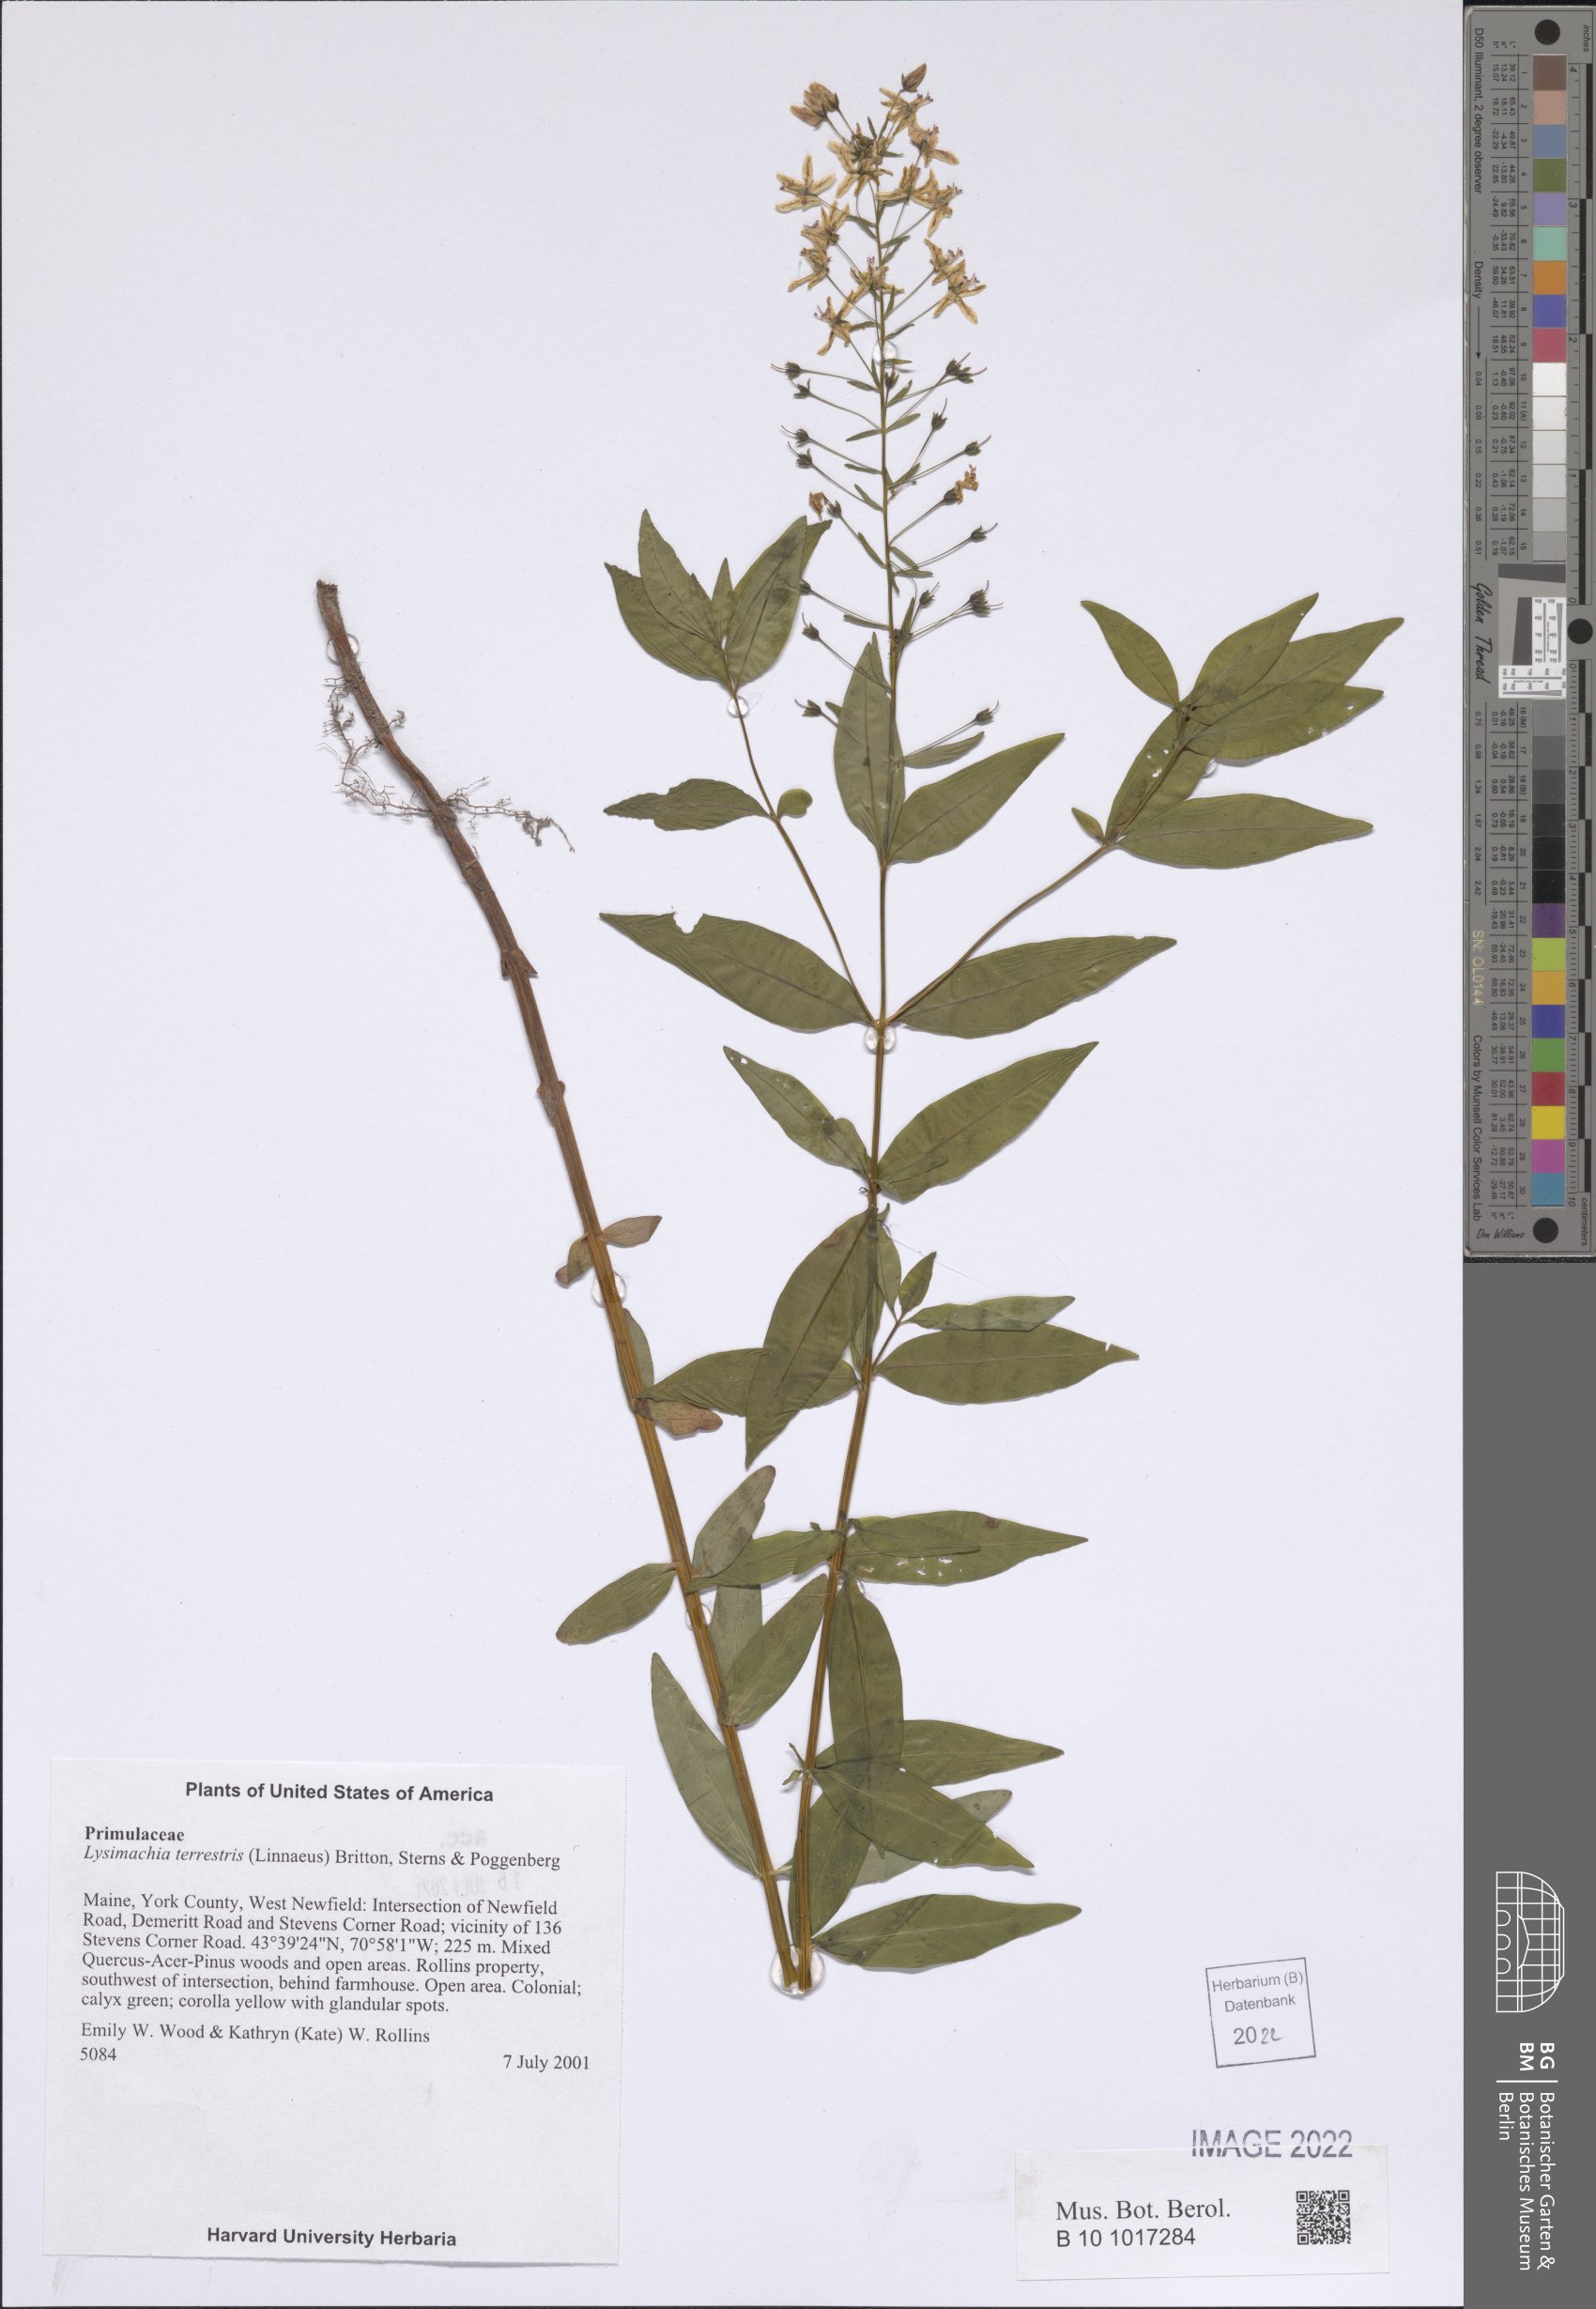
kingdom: Plantae
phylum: Tracheophyta
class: Magnoliopsida
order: Ericales
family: Primulaceae
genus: Lysimachia
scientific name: Lysimachia terrestris
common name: Lake loosestrife
